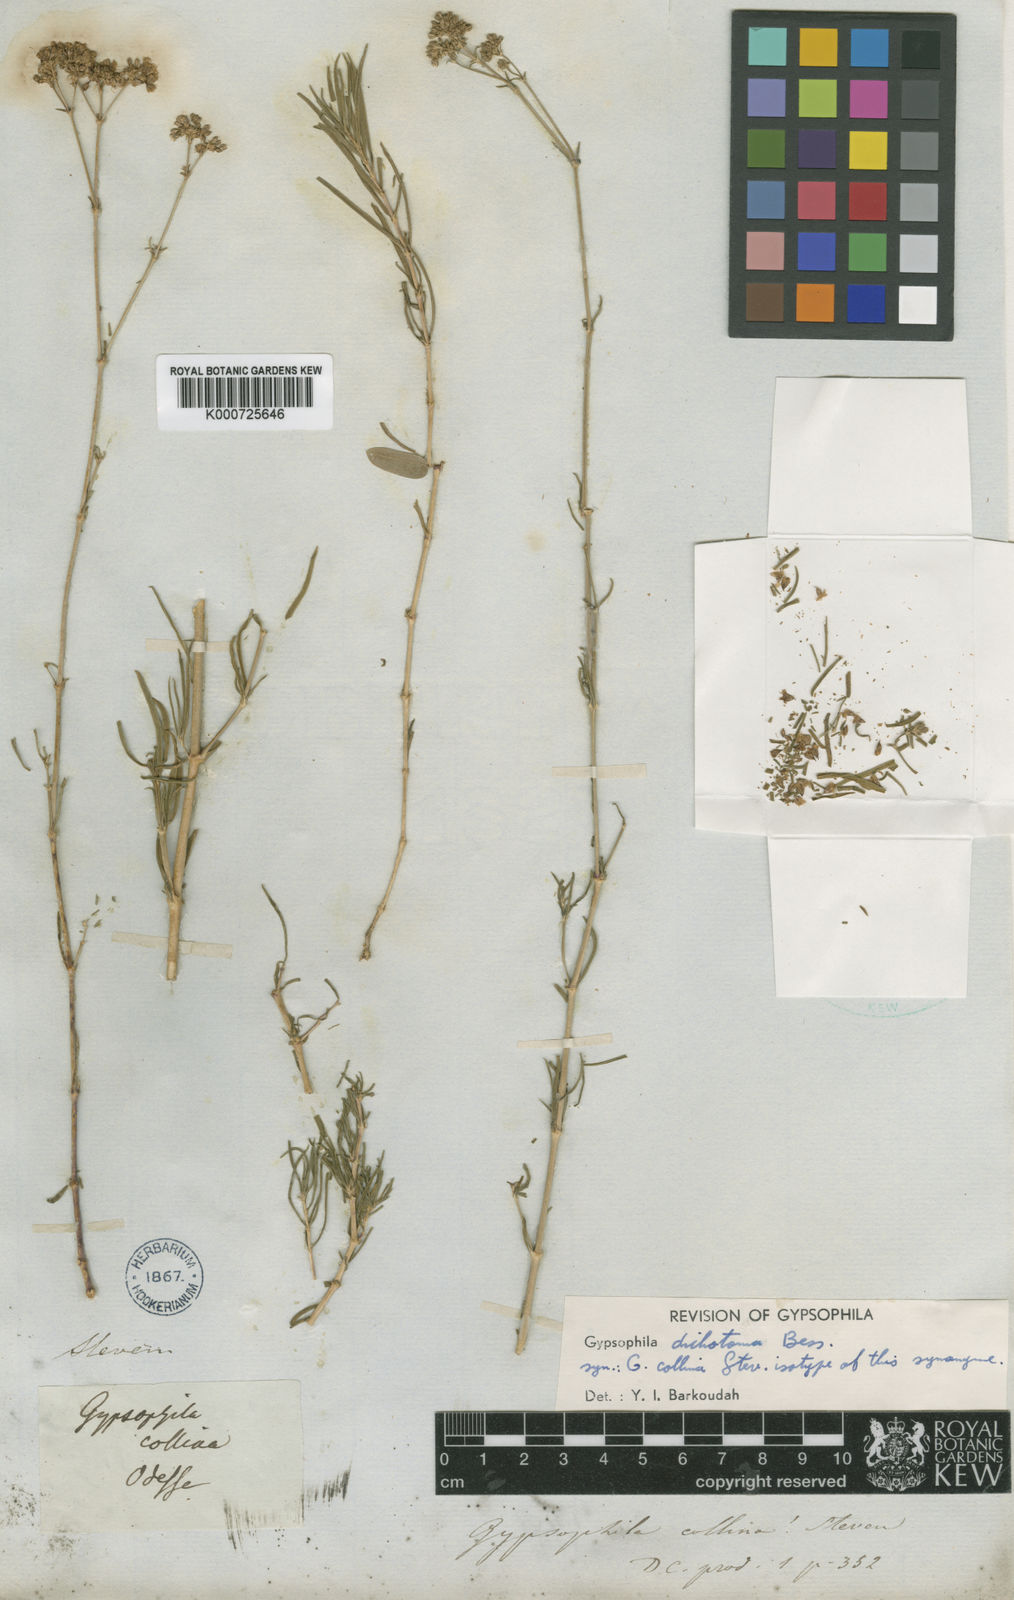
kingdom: Plantae
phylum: Tracheophyta
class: Magnoliopsida
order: Caryophyllales
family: Caryophyllaceae
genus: Gypsophila
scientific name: Gypsophila collina
